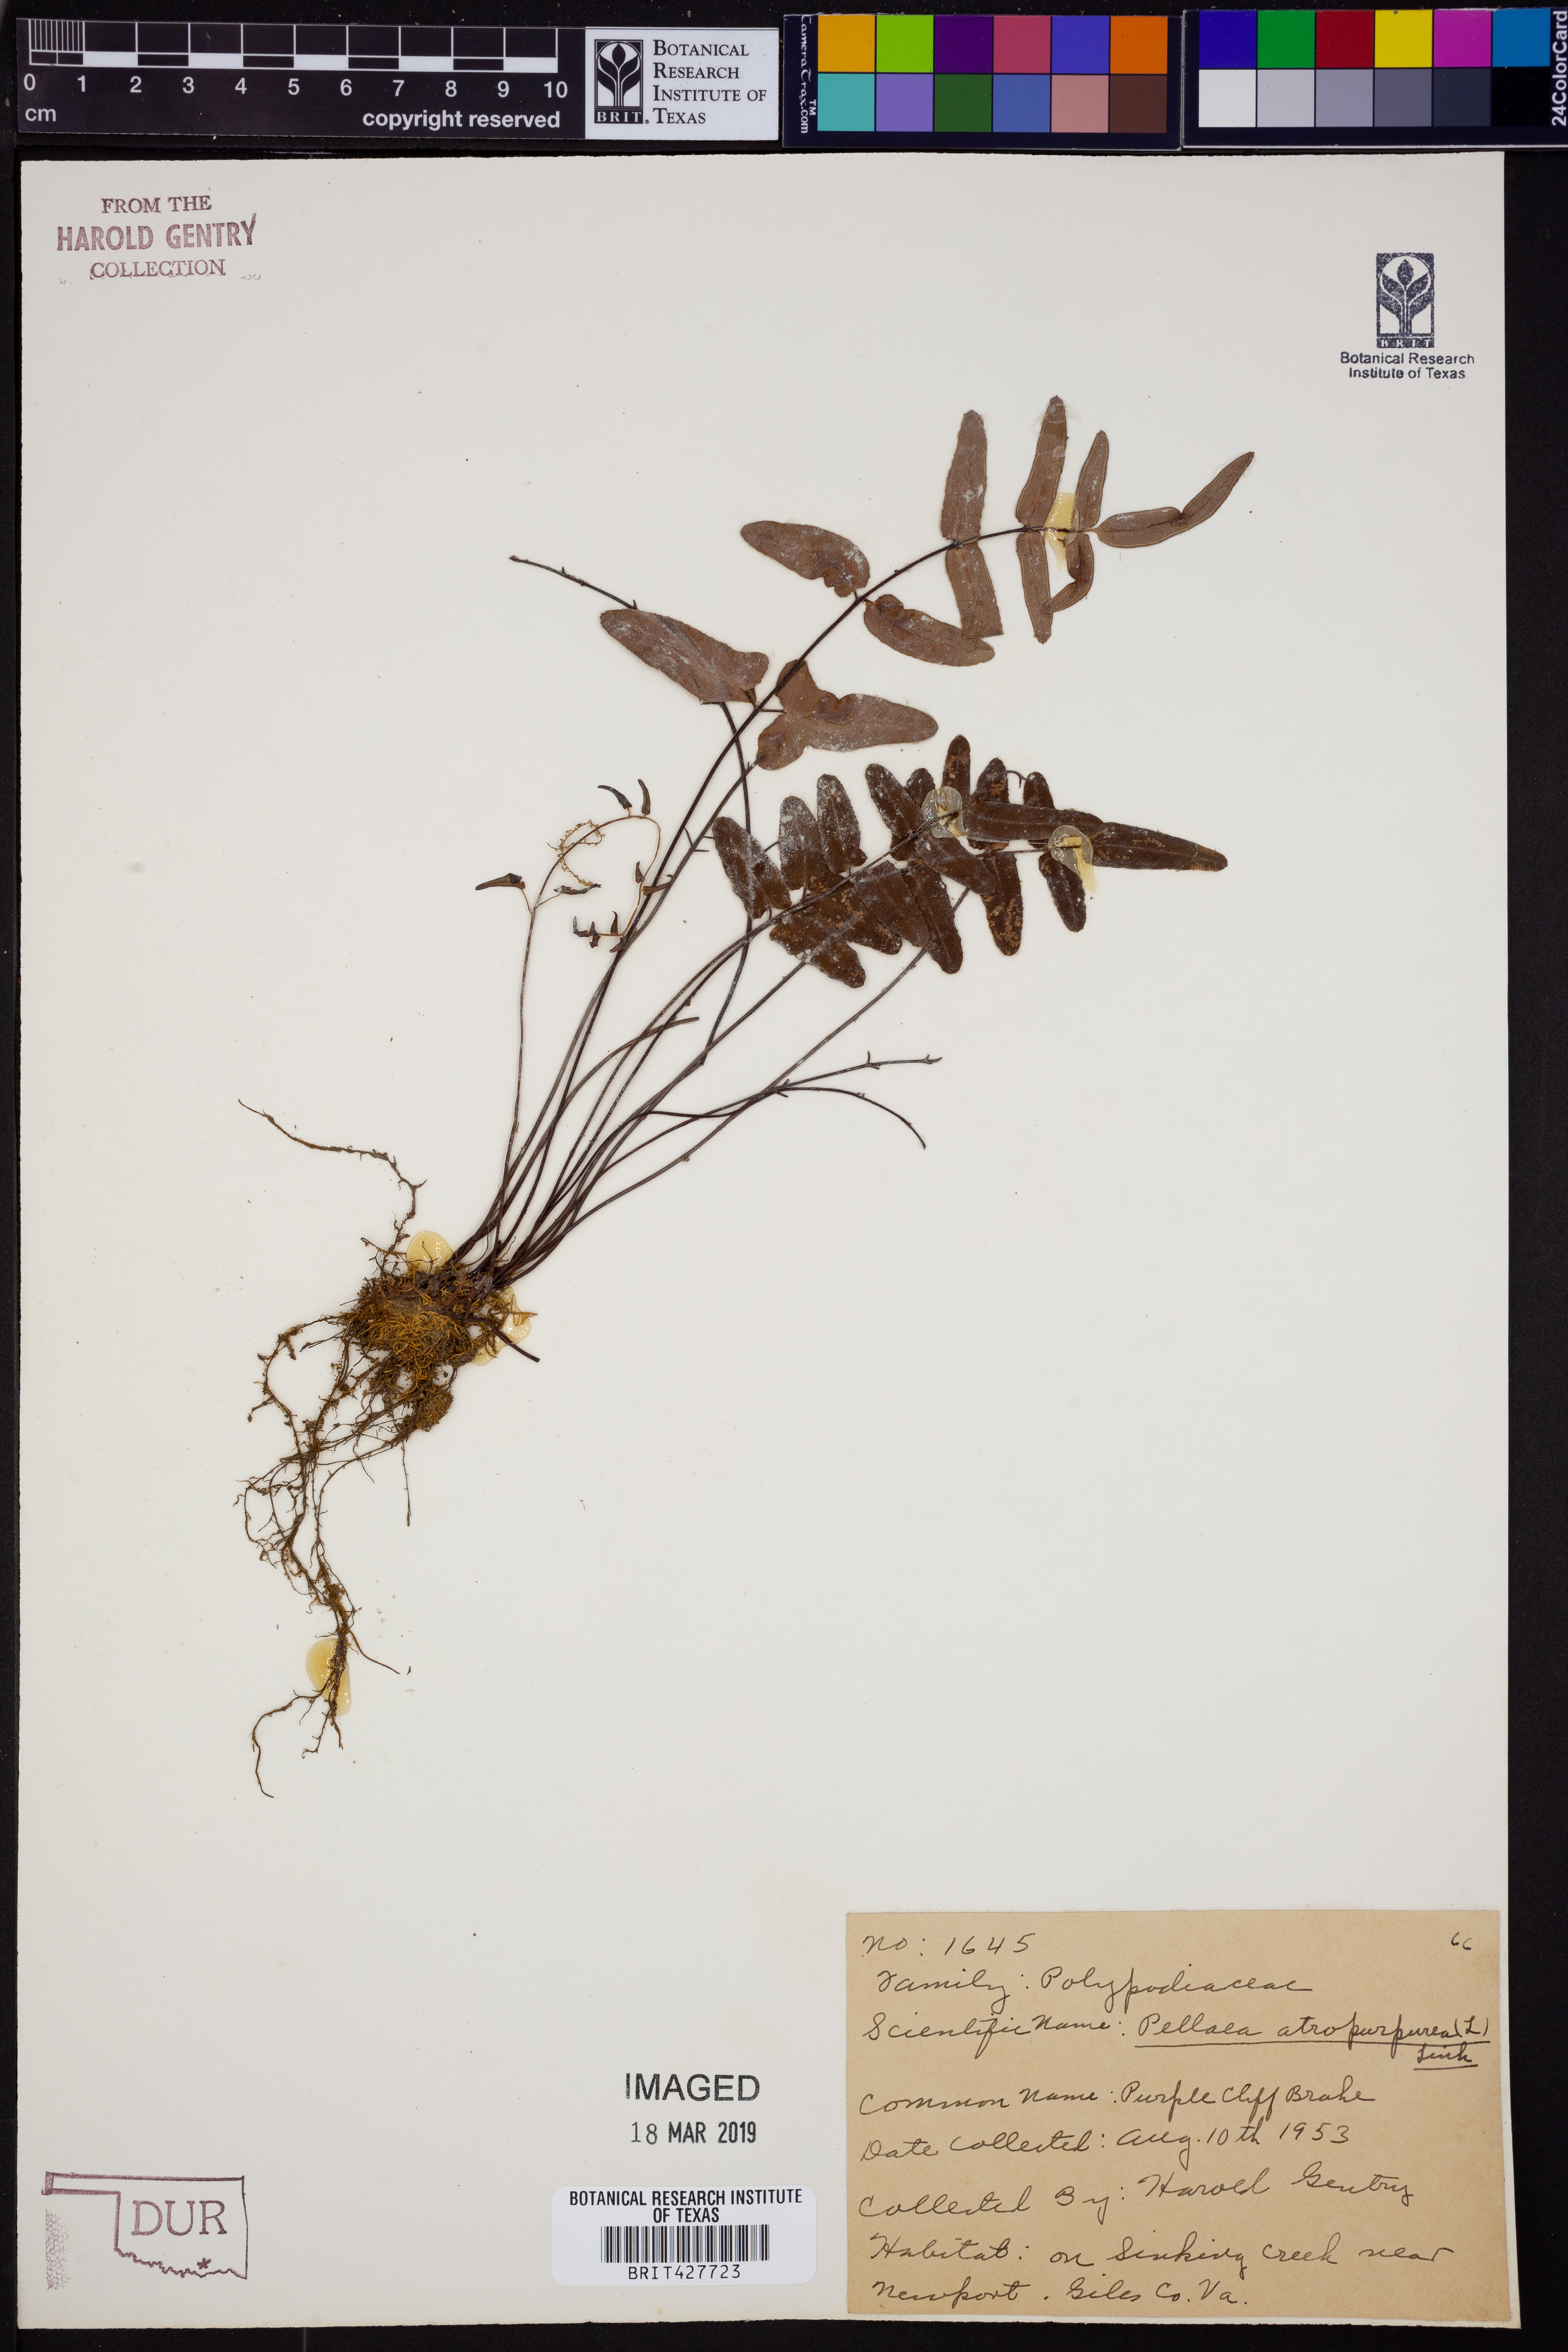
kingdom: Plantae
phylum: Tracheophyta
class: Polypodiopsida
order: Polypodiales
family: Pteridaceae
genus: Pellaea
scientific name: Pellaea atropurpurea
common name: Hairy cliffbrake
